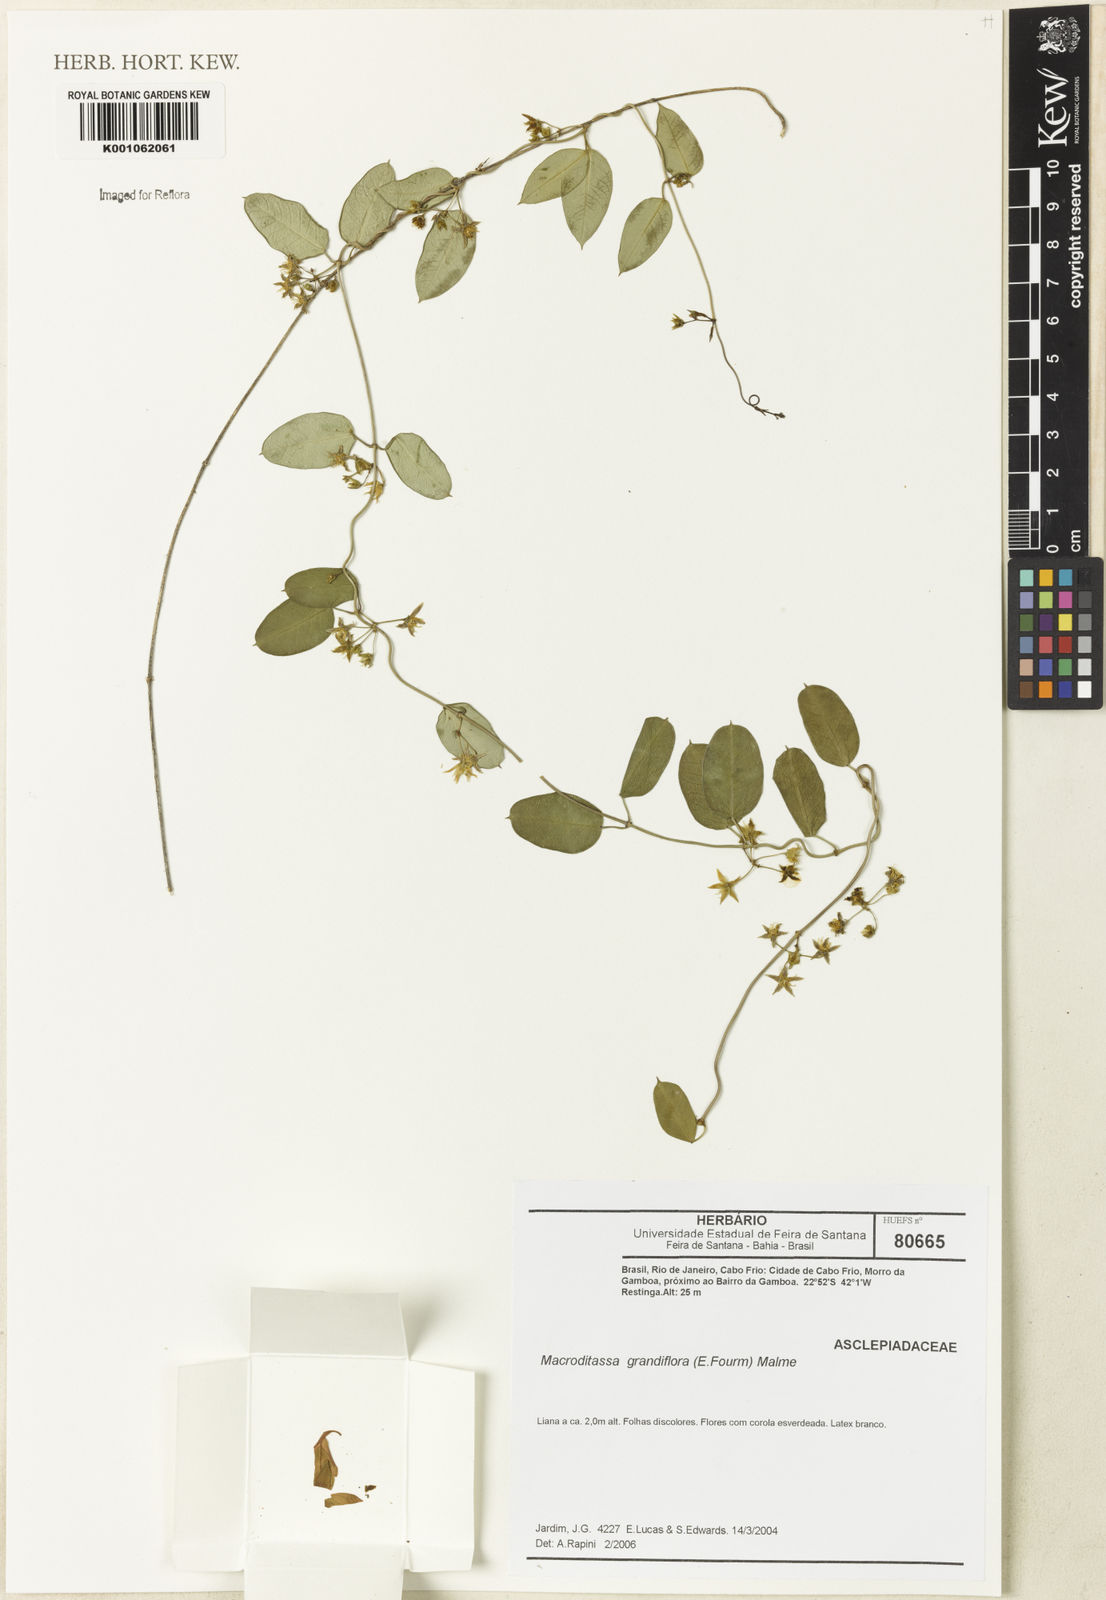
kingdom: Plantae
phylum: Tracheophyta
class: Magnoliopsida
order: Gentianales
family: Apocynaceae
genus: Macroditassa
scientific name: Macroditassa
